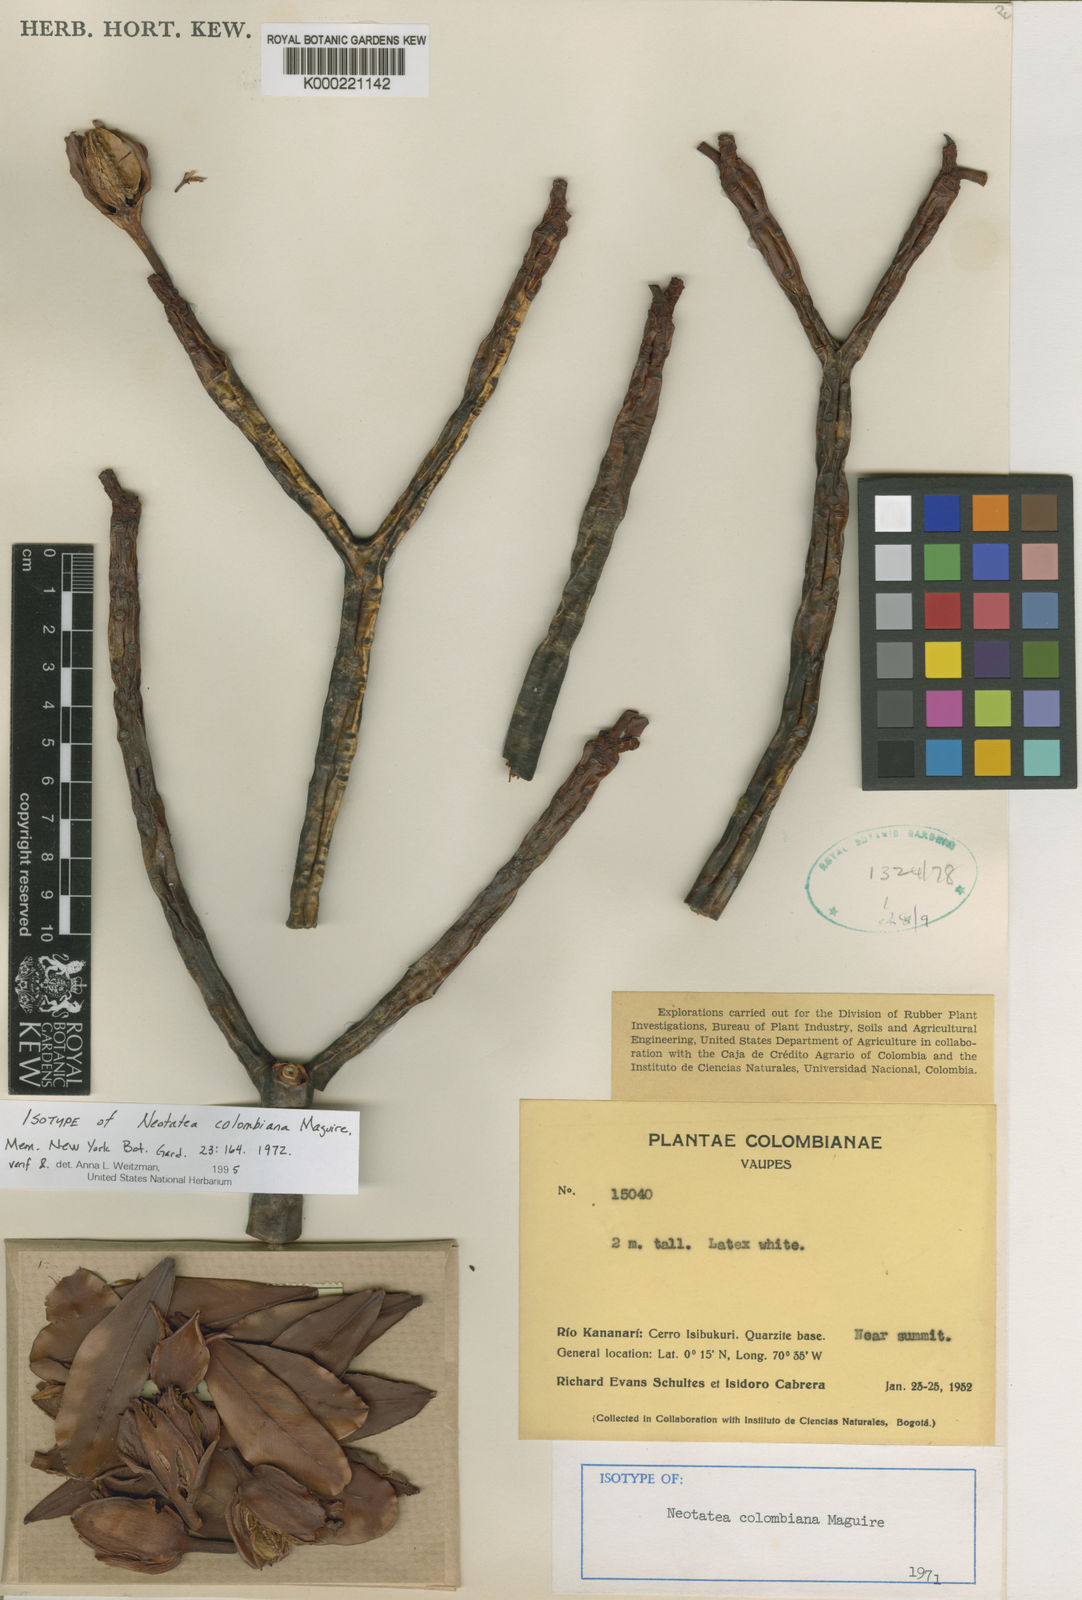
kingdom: Plantae
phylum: Tracheophyta
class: Magnoliopsida
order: Malpighiales
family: Calophyllaceae
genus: Neotatea
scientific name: Neotatea colombiana
